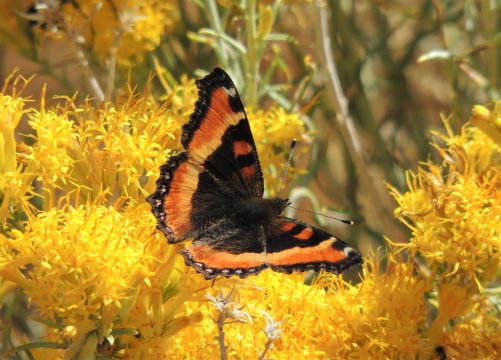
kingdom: Animalia
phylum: Arthropoda
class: Insecta
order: Lepidoptera
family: Nymphalidae
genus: Aglais
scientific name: Aglais milberti
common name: Milbert's Tortoiseshell
